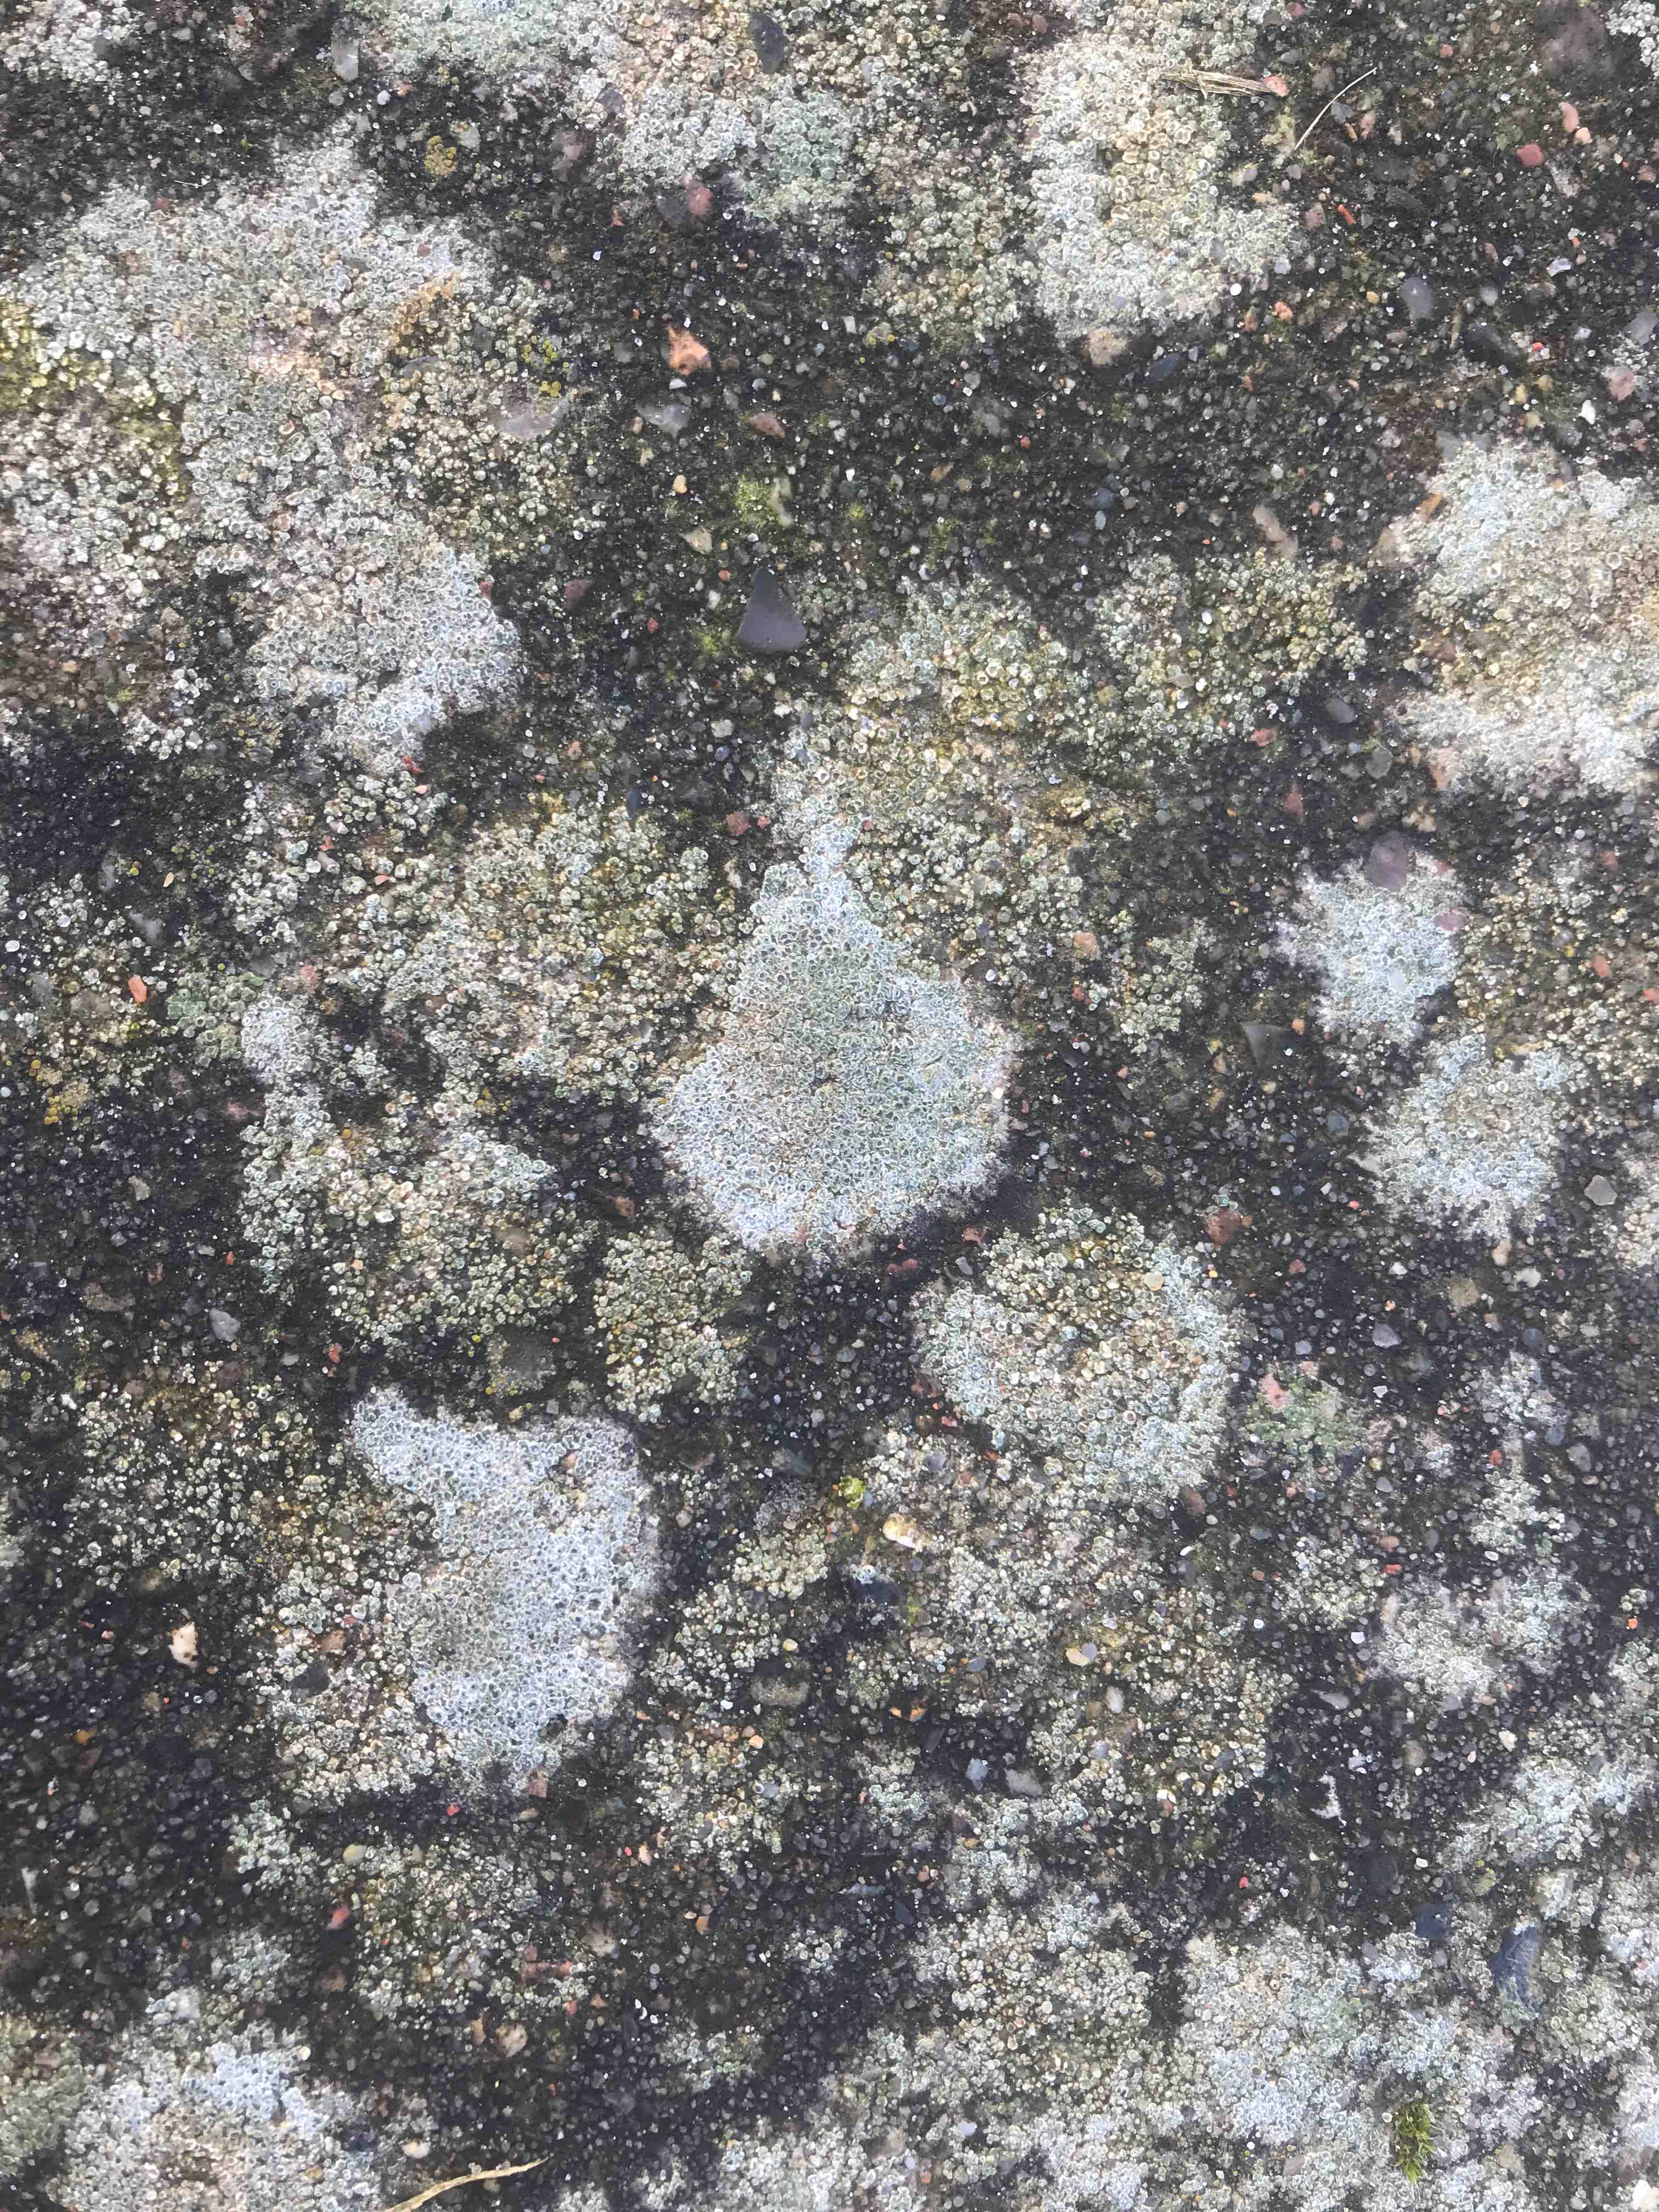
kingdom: Fungi
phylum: Ascomycota
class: Lecanoromycetes
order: Pertusariales
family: Megasporaceae
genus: Circinaria
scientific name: Circinaria contorta
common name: indviklet hulskivelav
